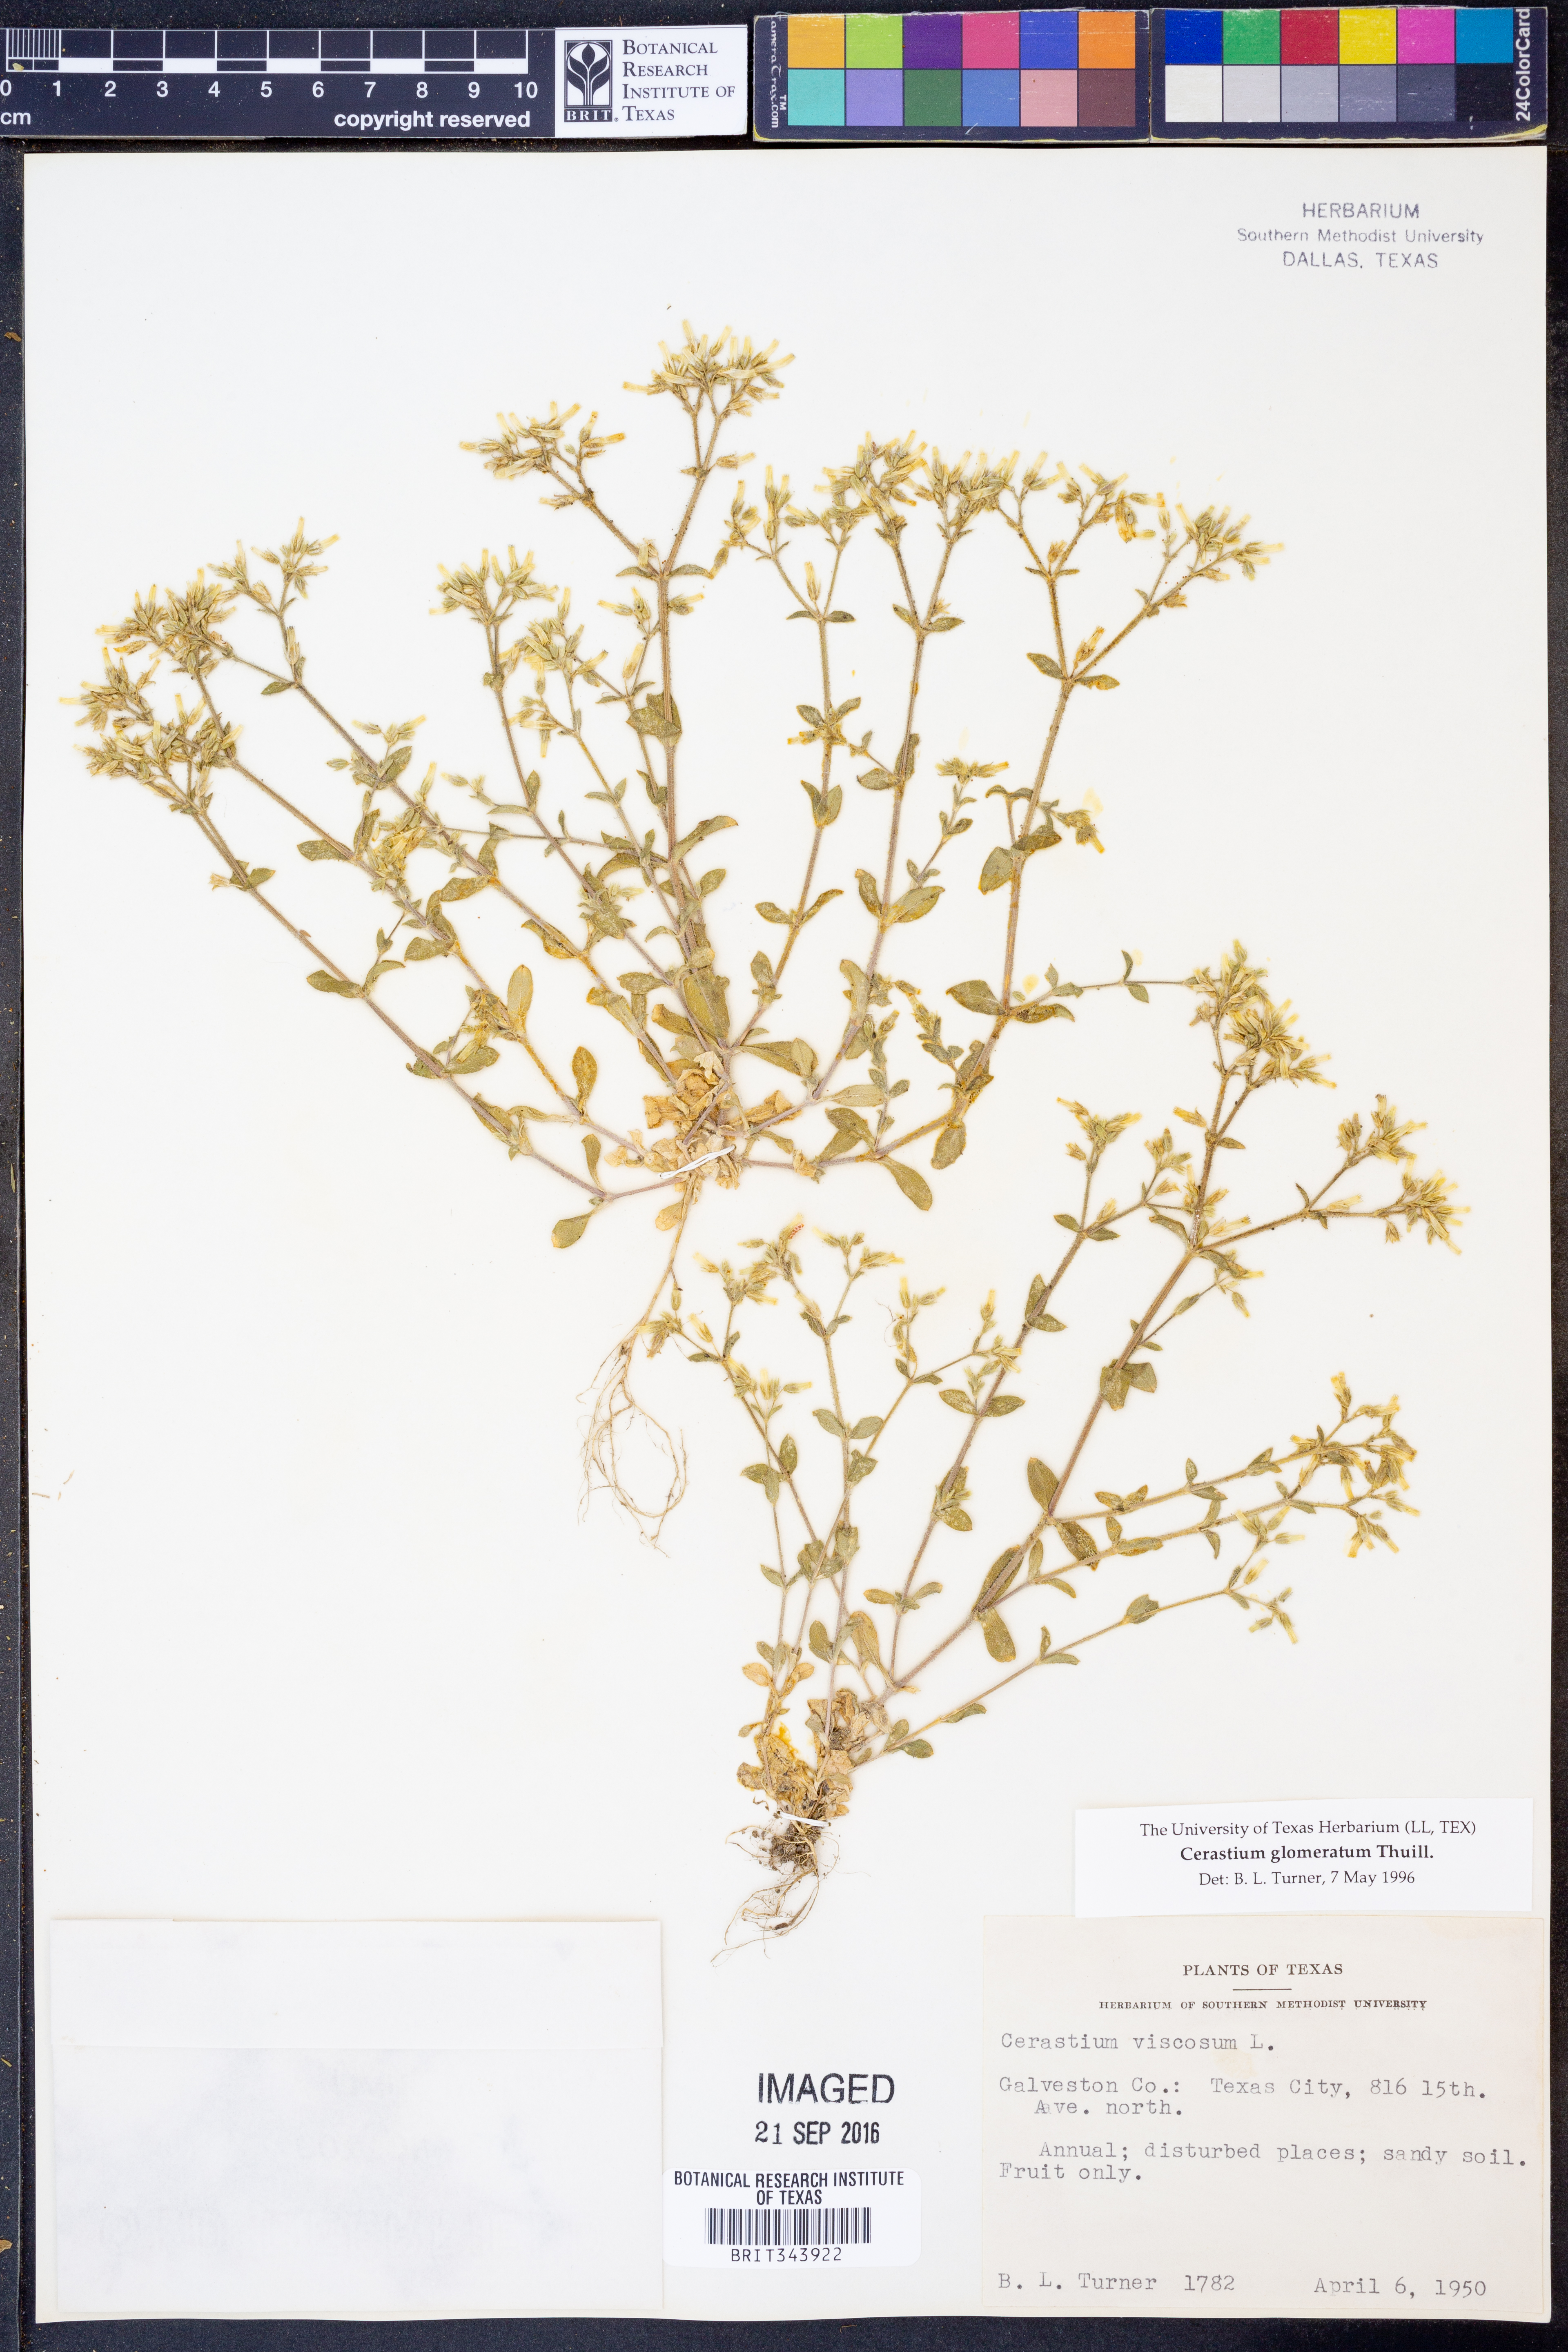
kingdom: Plantae
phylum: Tracheophyta
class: Magnoliopsida
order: Caryophyllales
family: Caryophyllaceae
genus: Cerastium
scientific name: Cerastium glomeratum
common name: Sticky chickweed
